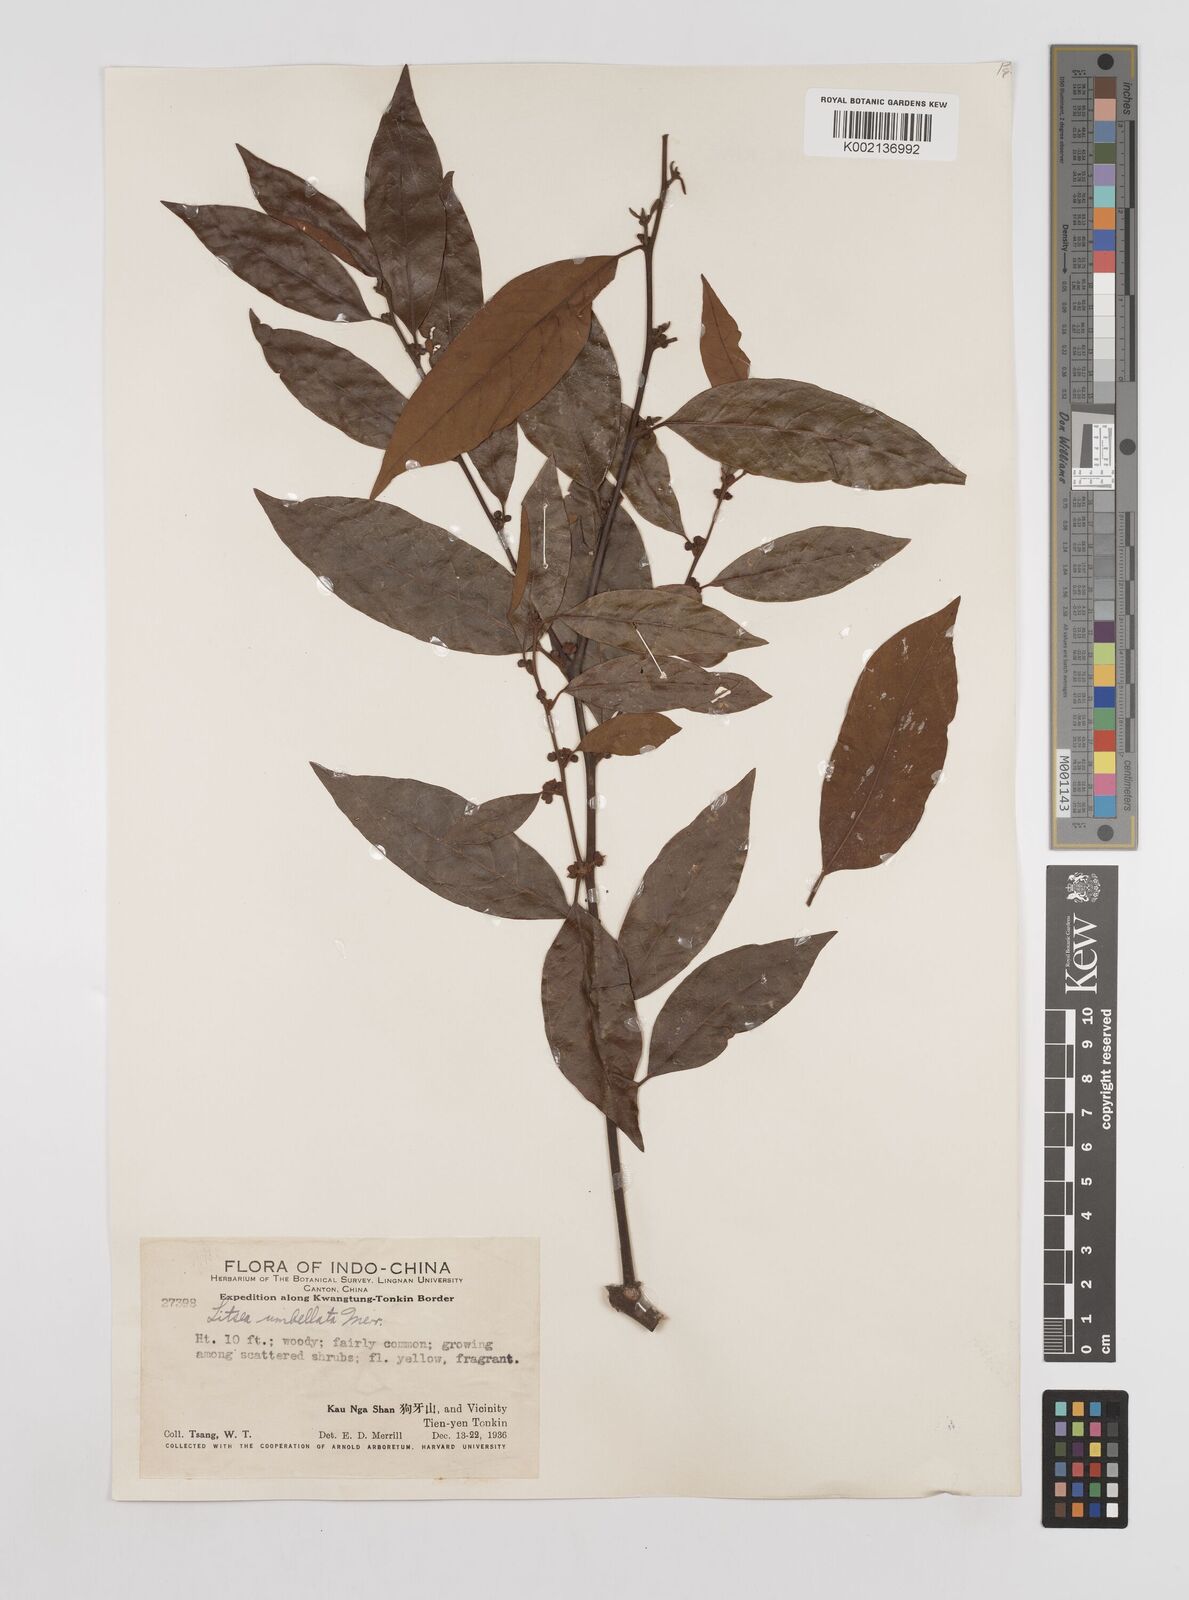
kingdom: Plantae
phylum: Tracheophyta
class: Magnoliopsida
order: Laurales
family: Lauraceae
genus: Litsea
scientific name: Litsea umbellata
